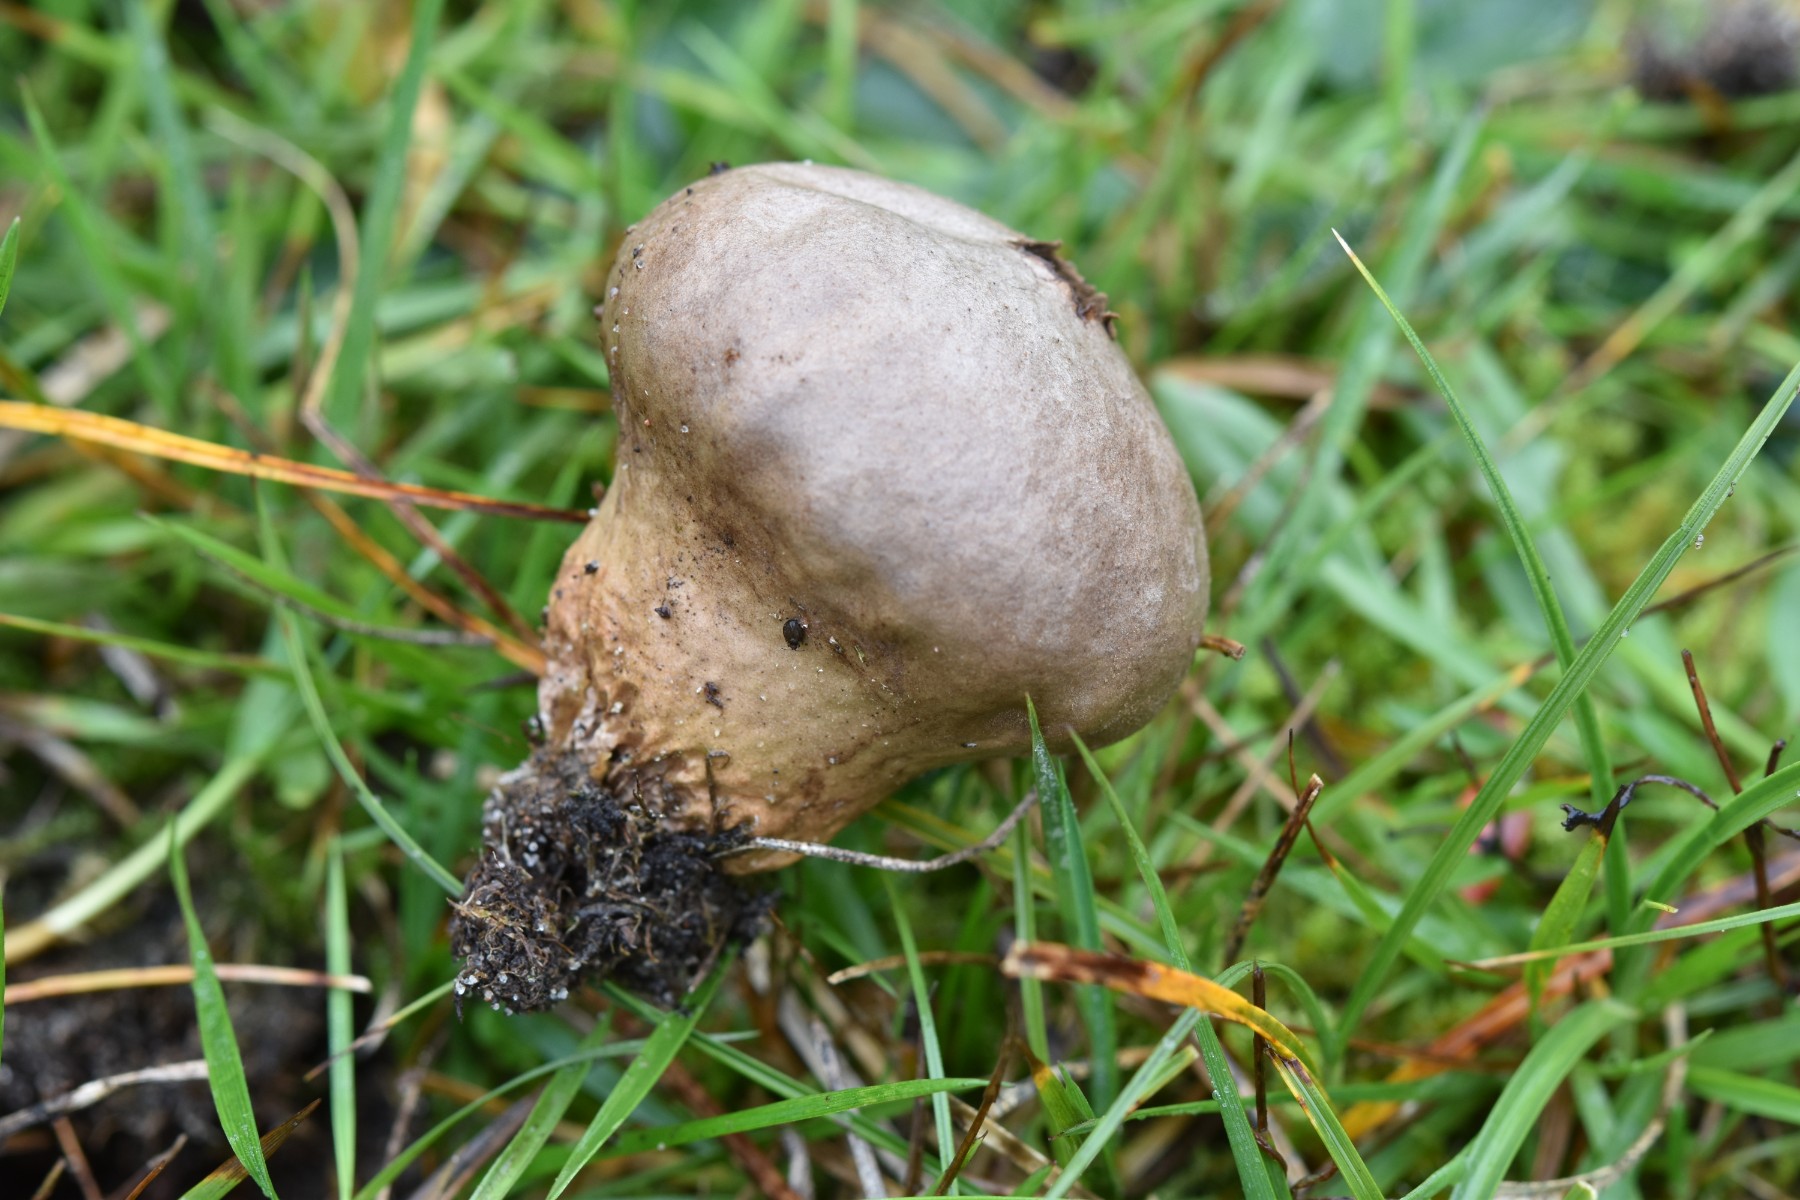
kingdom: Fungi
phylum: Basidiomycota
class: Agaricomycetes
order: Agaricales
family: Lycoperdaceae
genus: Lycoperdon
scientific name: Lycoperdon lividum
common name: mark-støvbold
